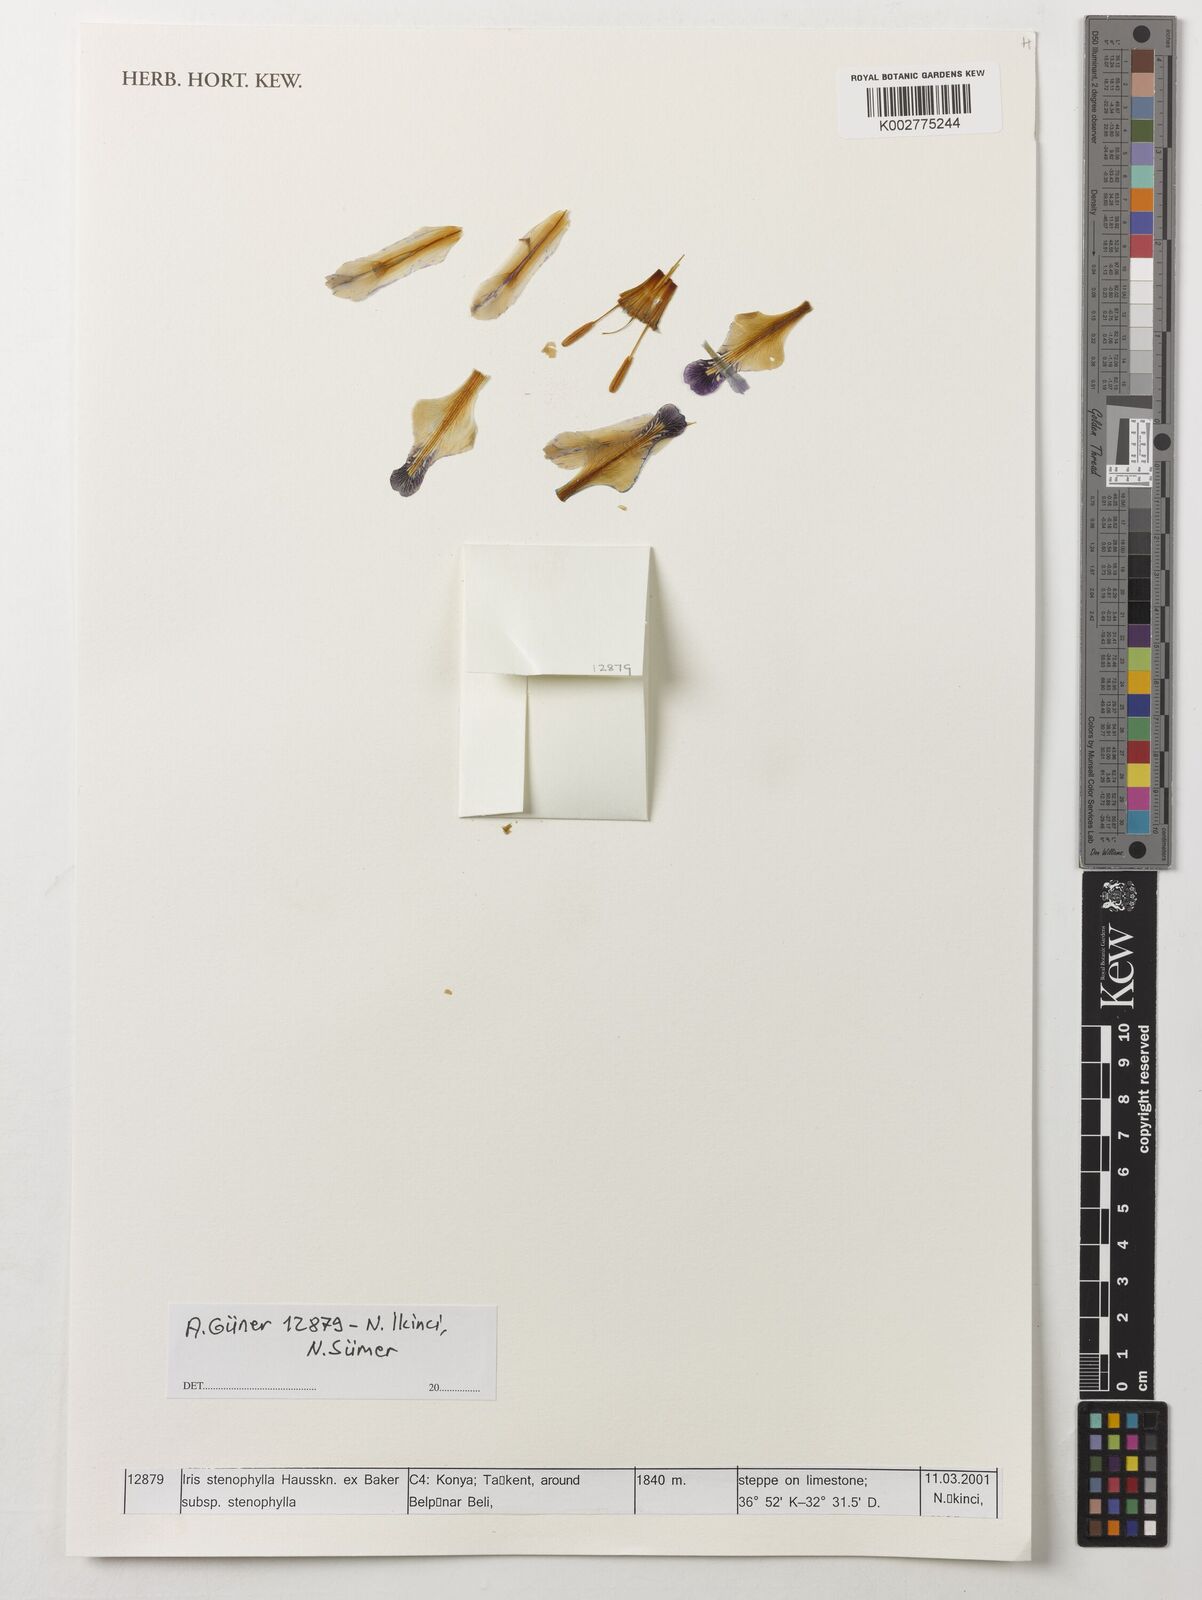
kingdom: Plantae
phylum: Tracheophyta
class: Liliopsida
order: Asparagales
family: Iridaceae
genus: Iris
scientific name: Iris stenophylla
